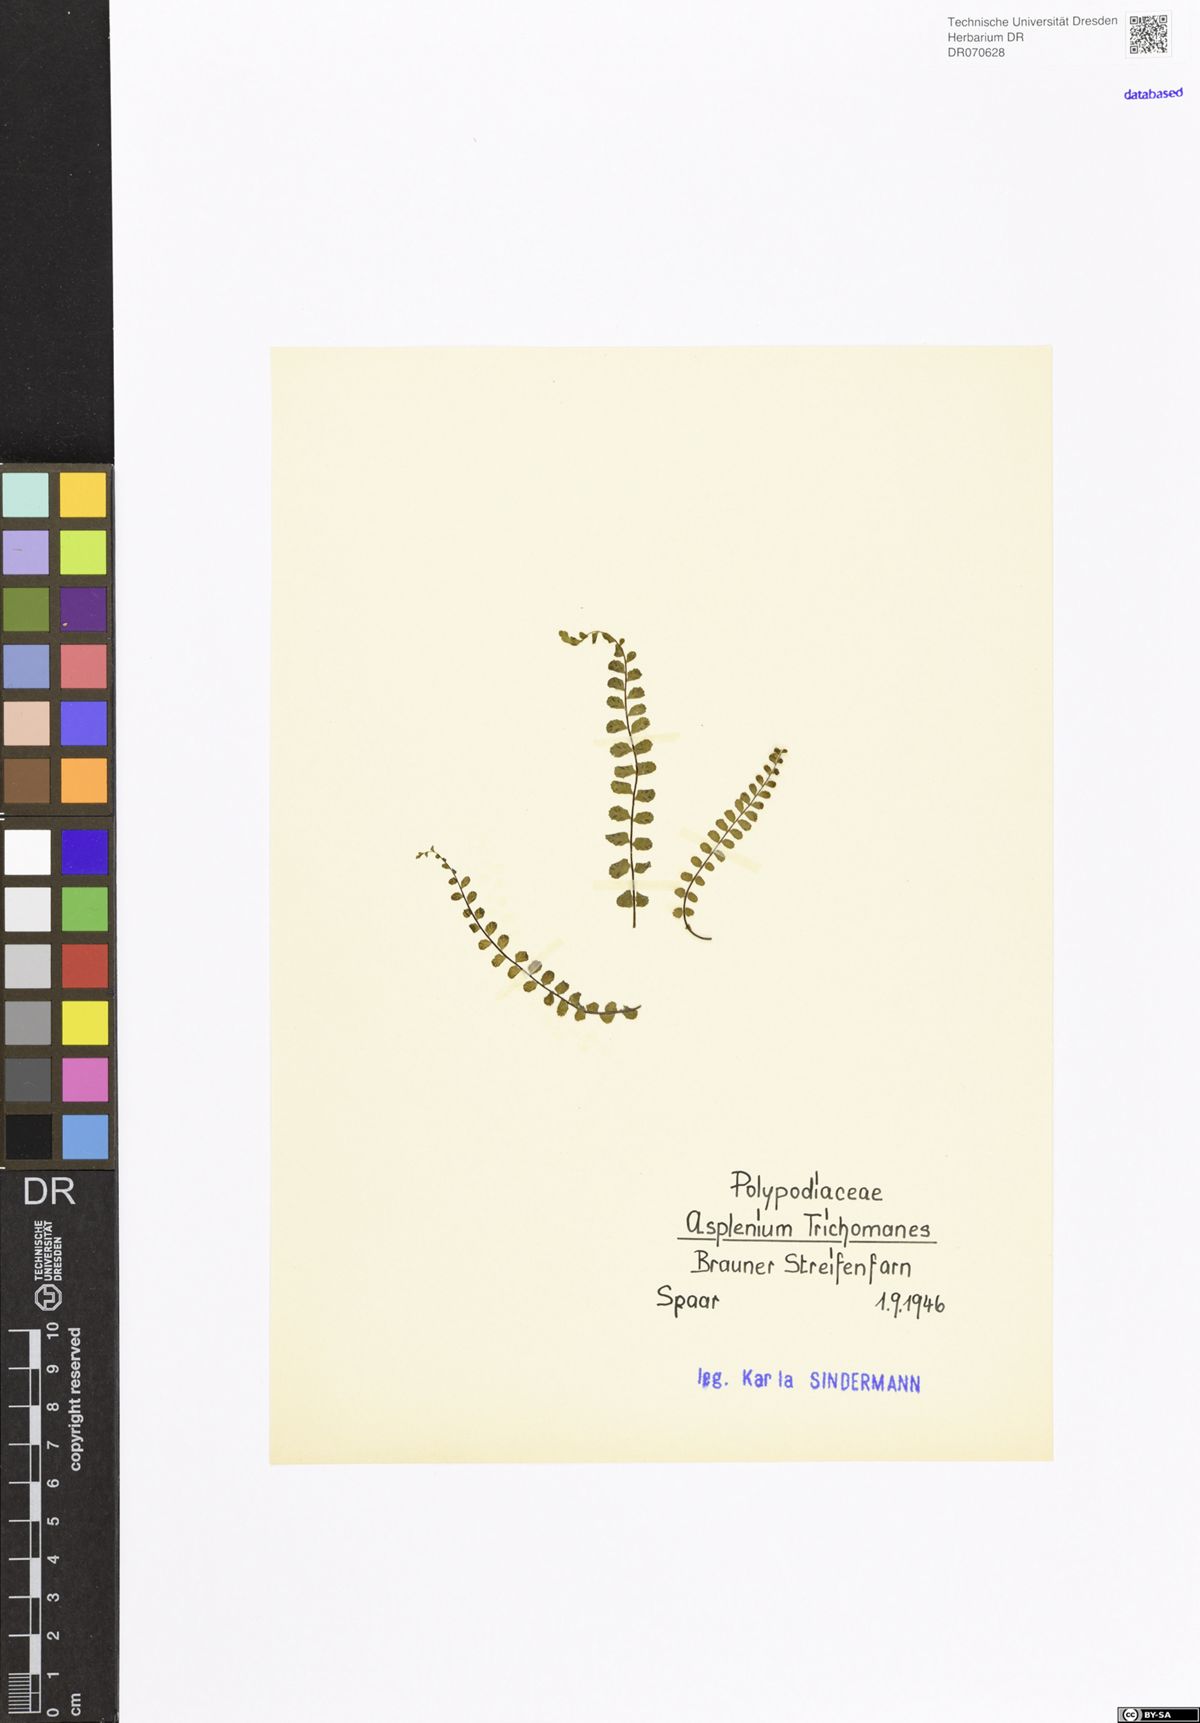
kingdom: Plantae
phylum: Tracheophyta
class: Polypodiopsida
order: Polypodiales
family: Aspleniaceae
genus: Asplenium
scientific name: Asplenium trichomanes
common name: Maidenhair spleenwort
